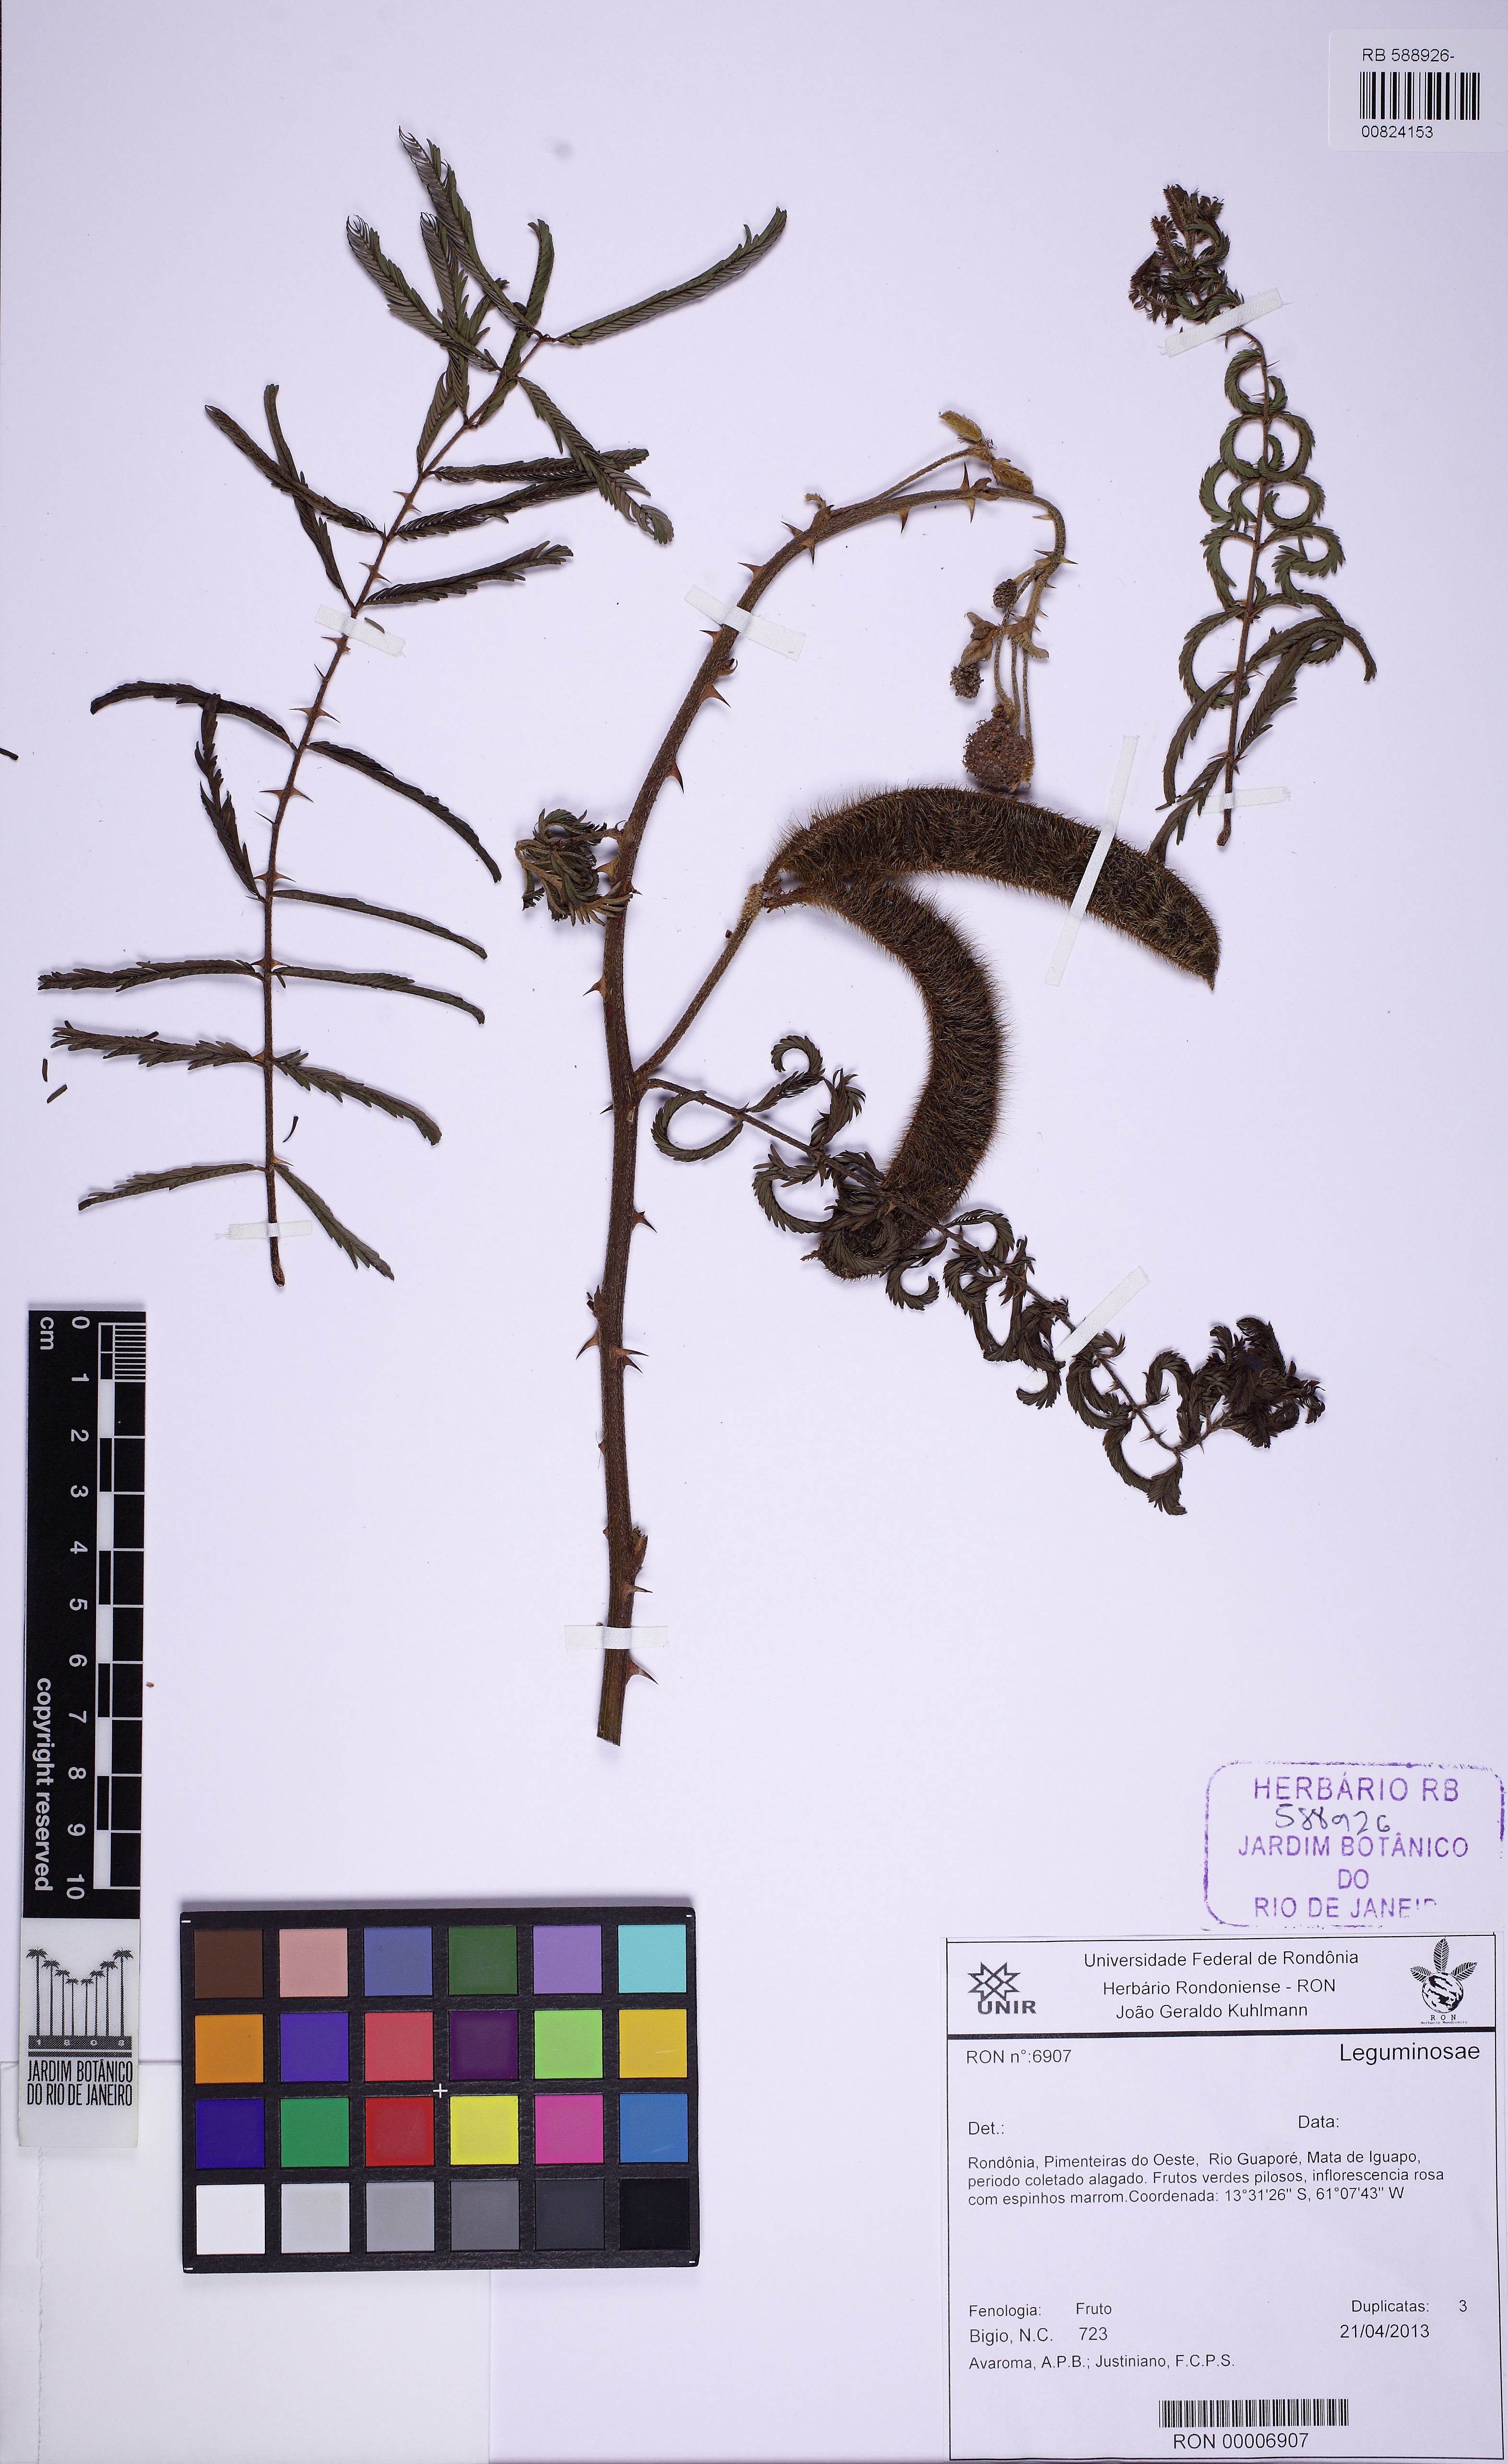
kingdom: Plantae
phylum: Tracheophyta
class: Magnoliopsida
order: Fabales
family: Fabaceae
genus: Mimosa
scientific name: Mimosa pigra
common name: Black mimosa
